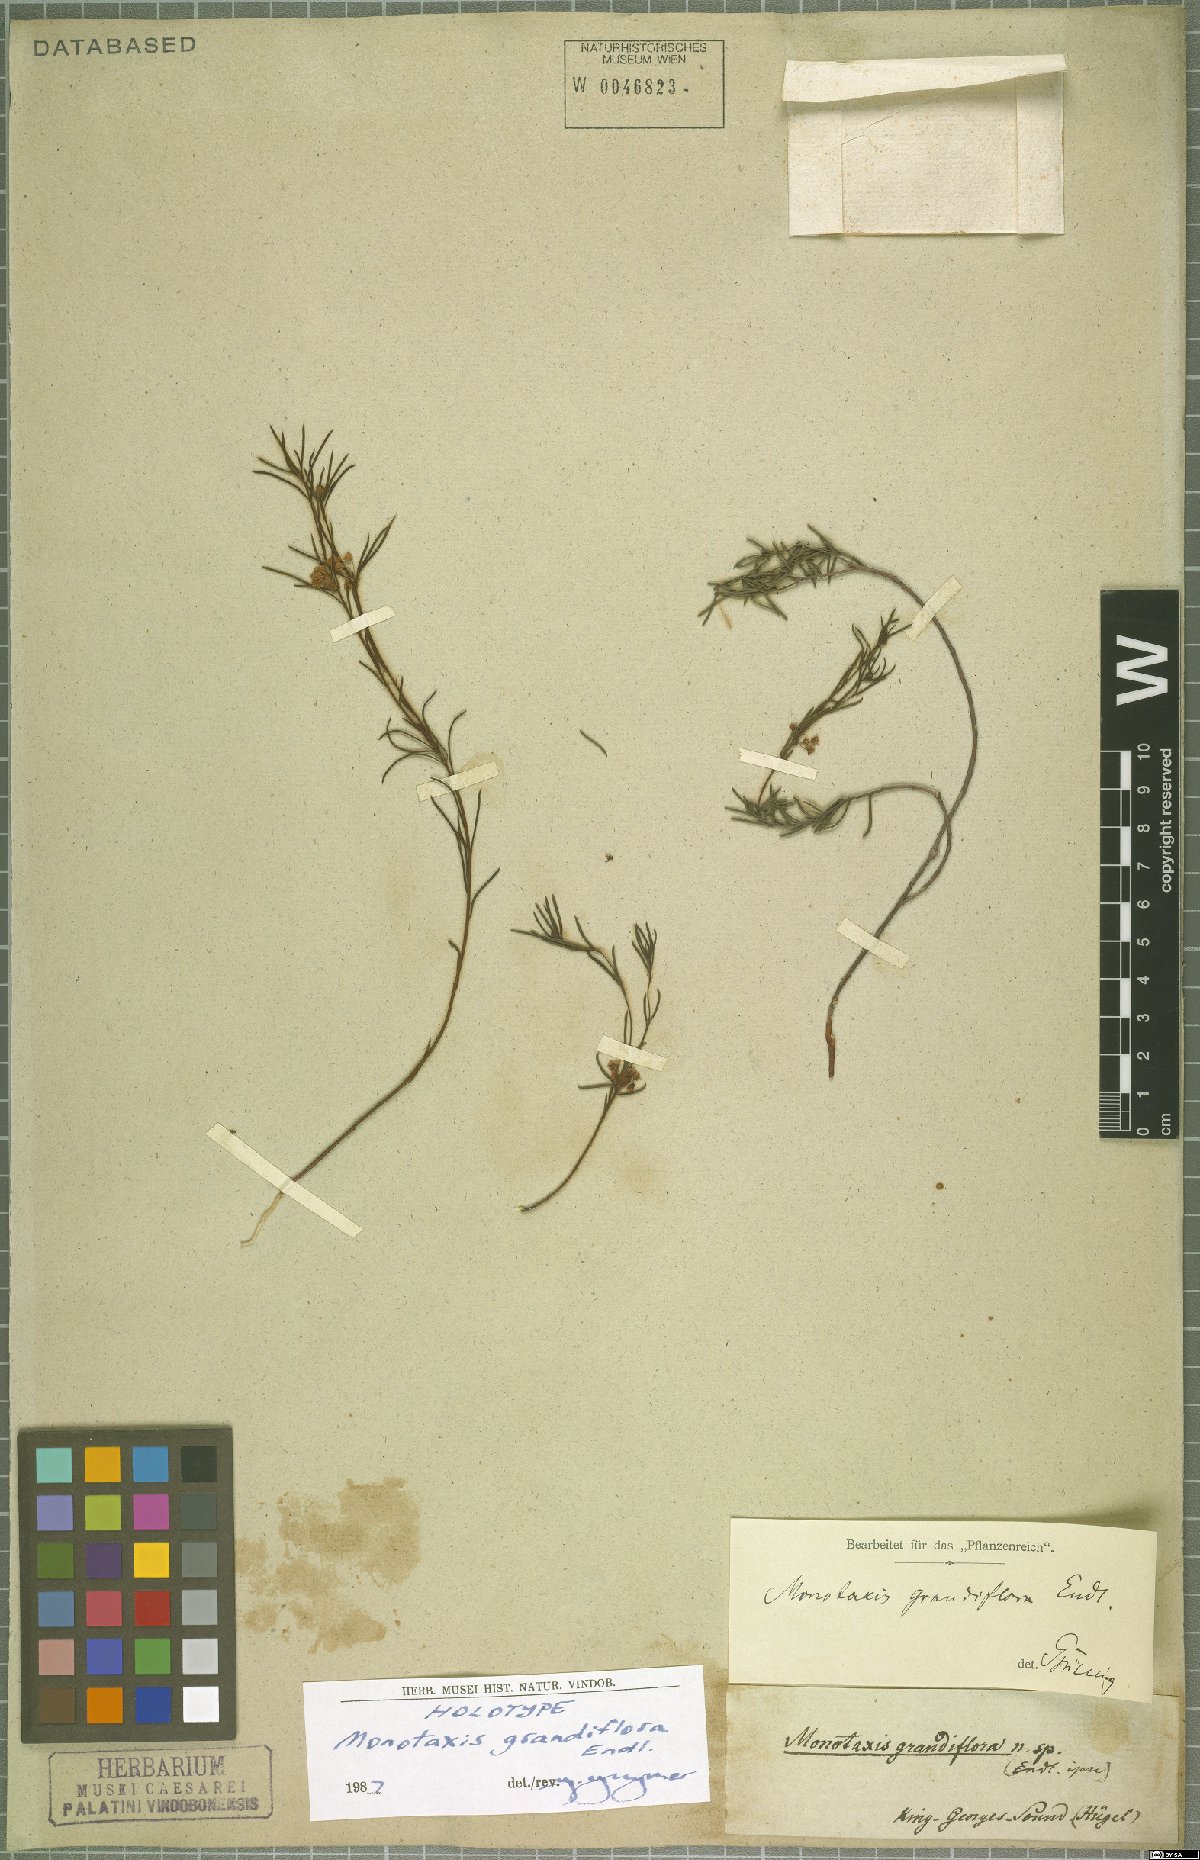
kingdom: Plantae
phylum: Tracheophyta
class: Magnoliopsida
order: Malpighiales
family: Euphorbiaceae
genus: Monotaxis
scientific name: Monotaxis grandiflora
